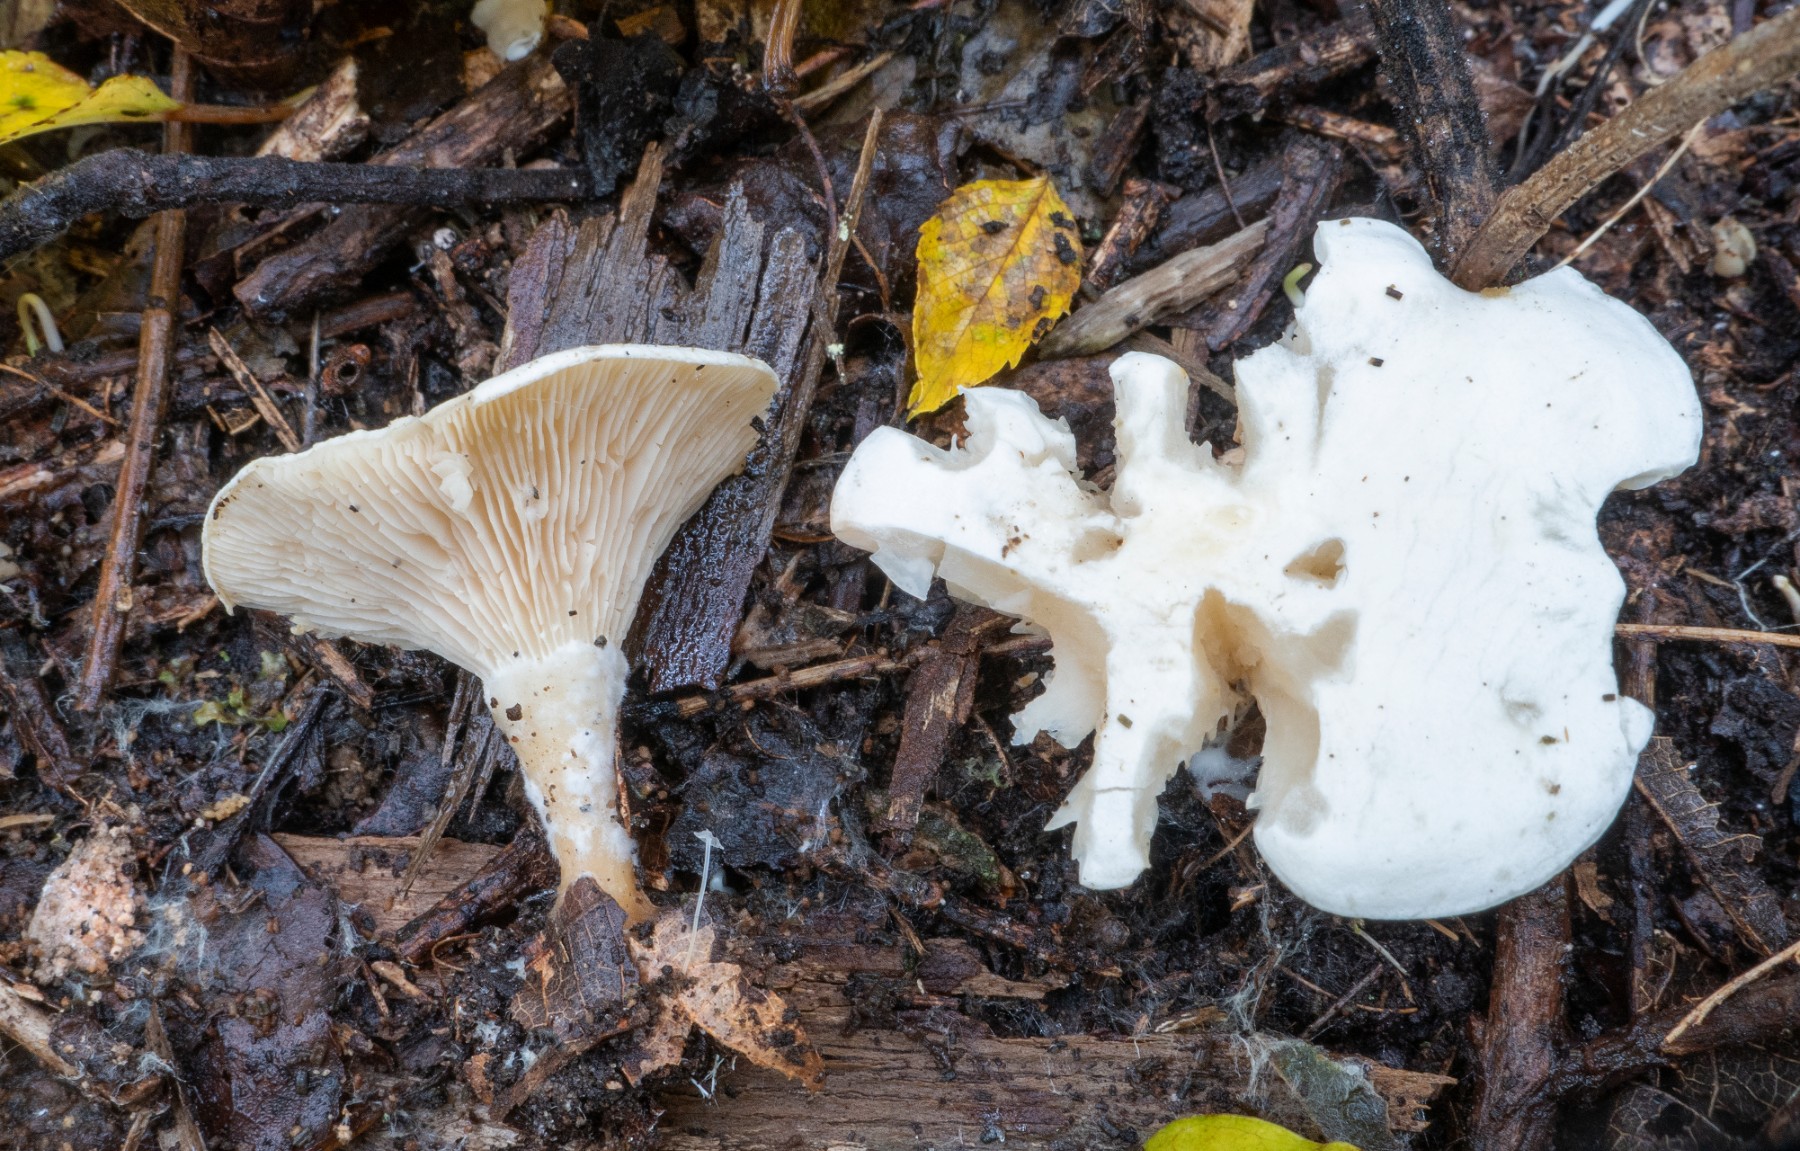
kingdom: Fungi
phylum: Basidiomycota
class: Agaricomycetes
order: Agaricales
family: Tricholomataceae
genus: Lulesia
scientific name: Lulesia
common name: hvid troldhat
